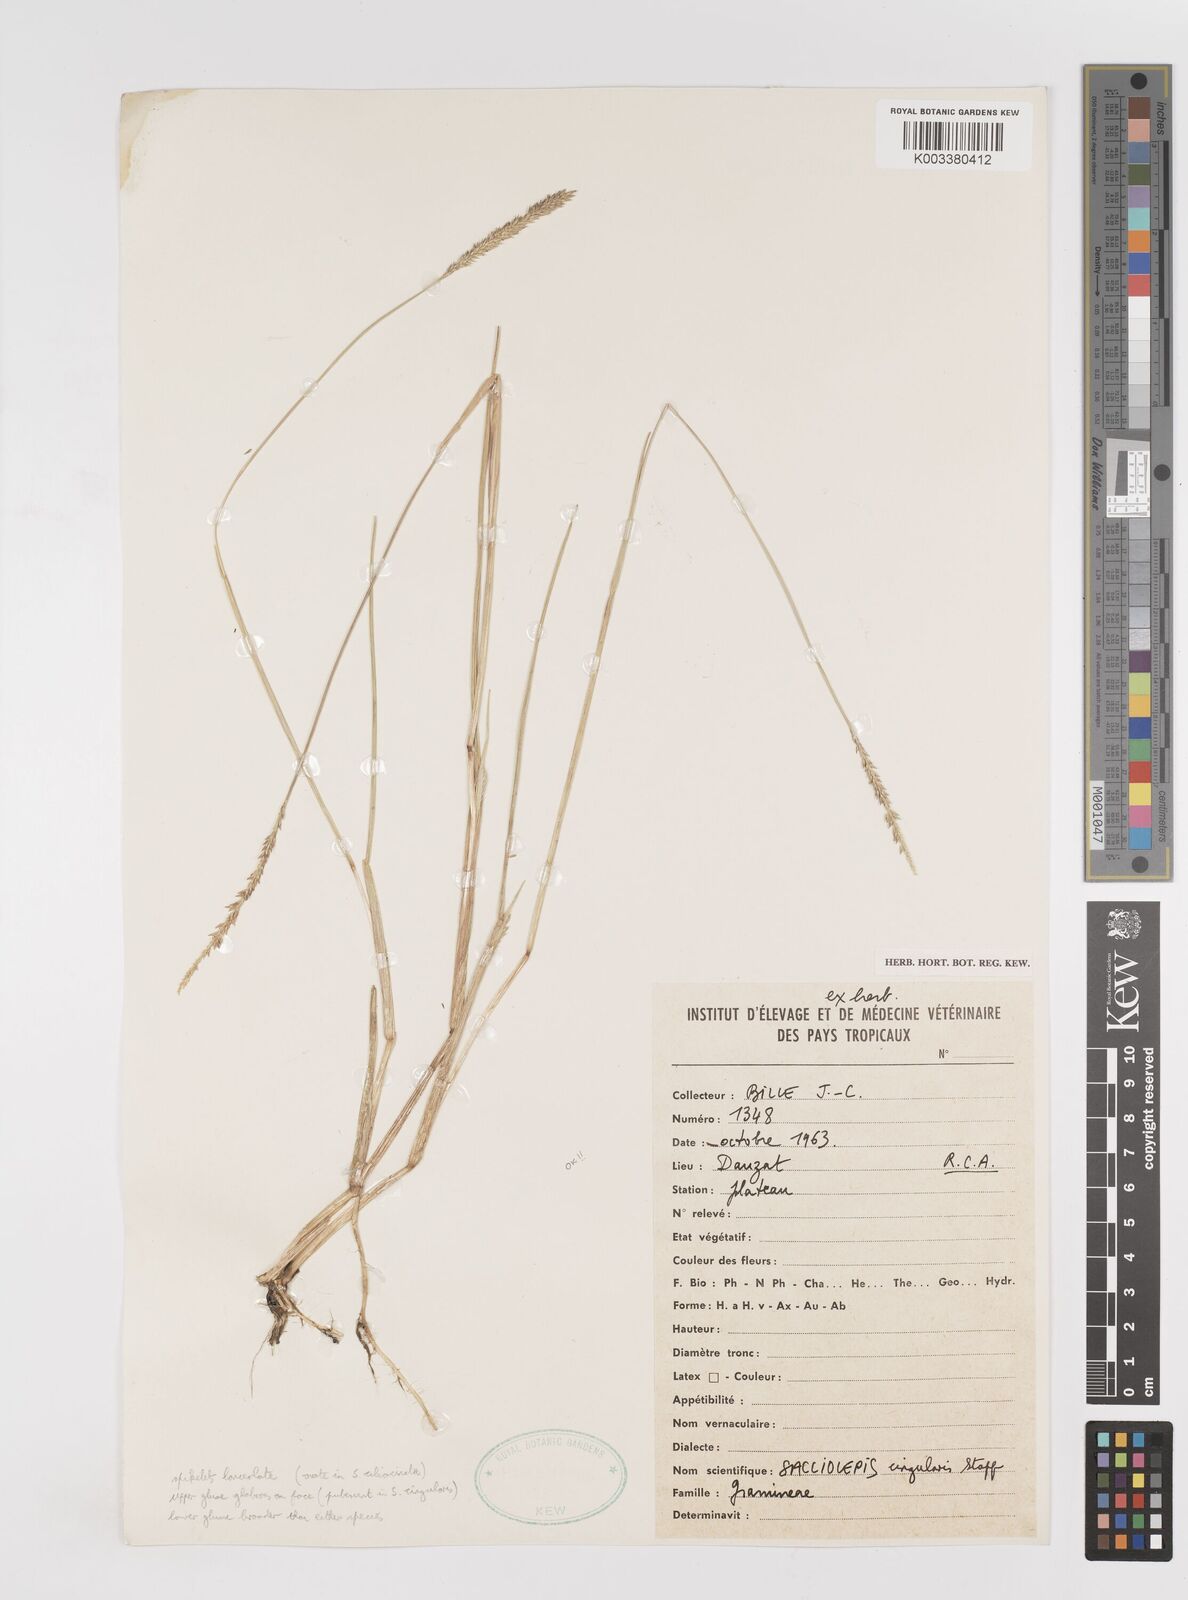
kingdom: Plantae
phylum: Tracheophyta
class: Liliopsida
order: Poales
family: Poaceae
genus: Sacciolepis
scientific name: Sacciolepis cingularis
